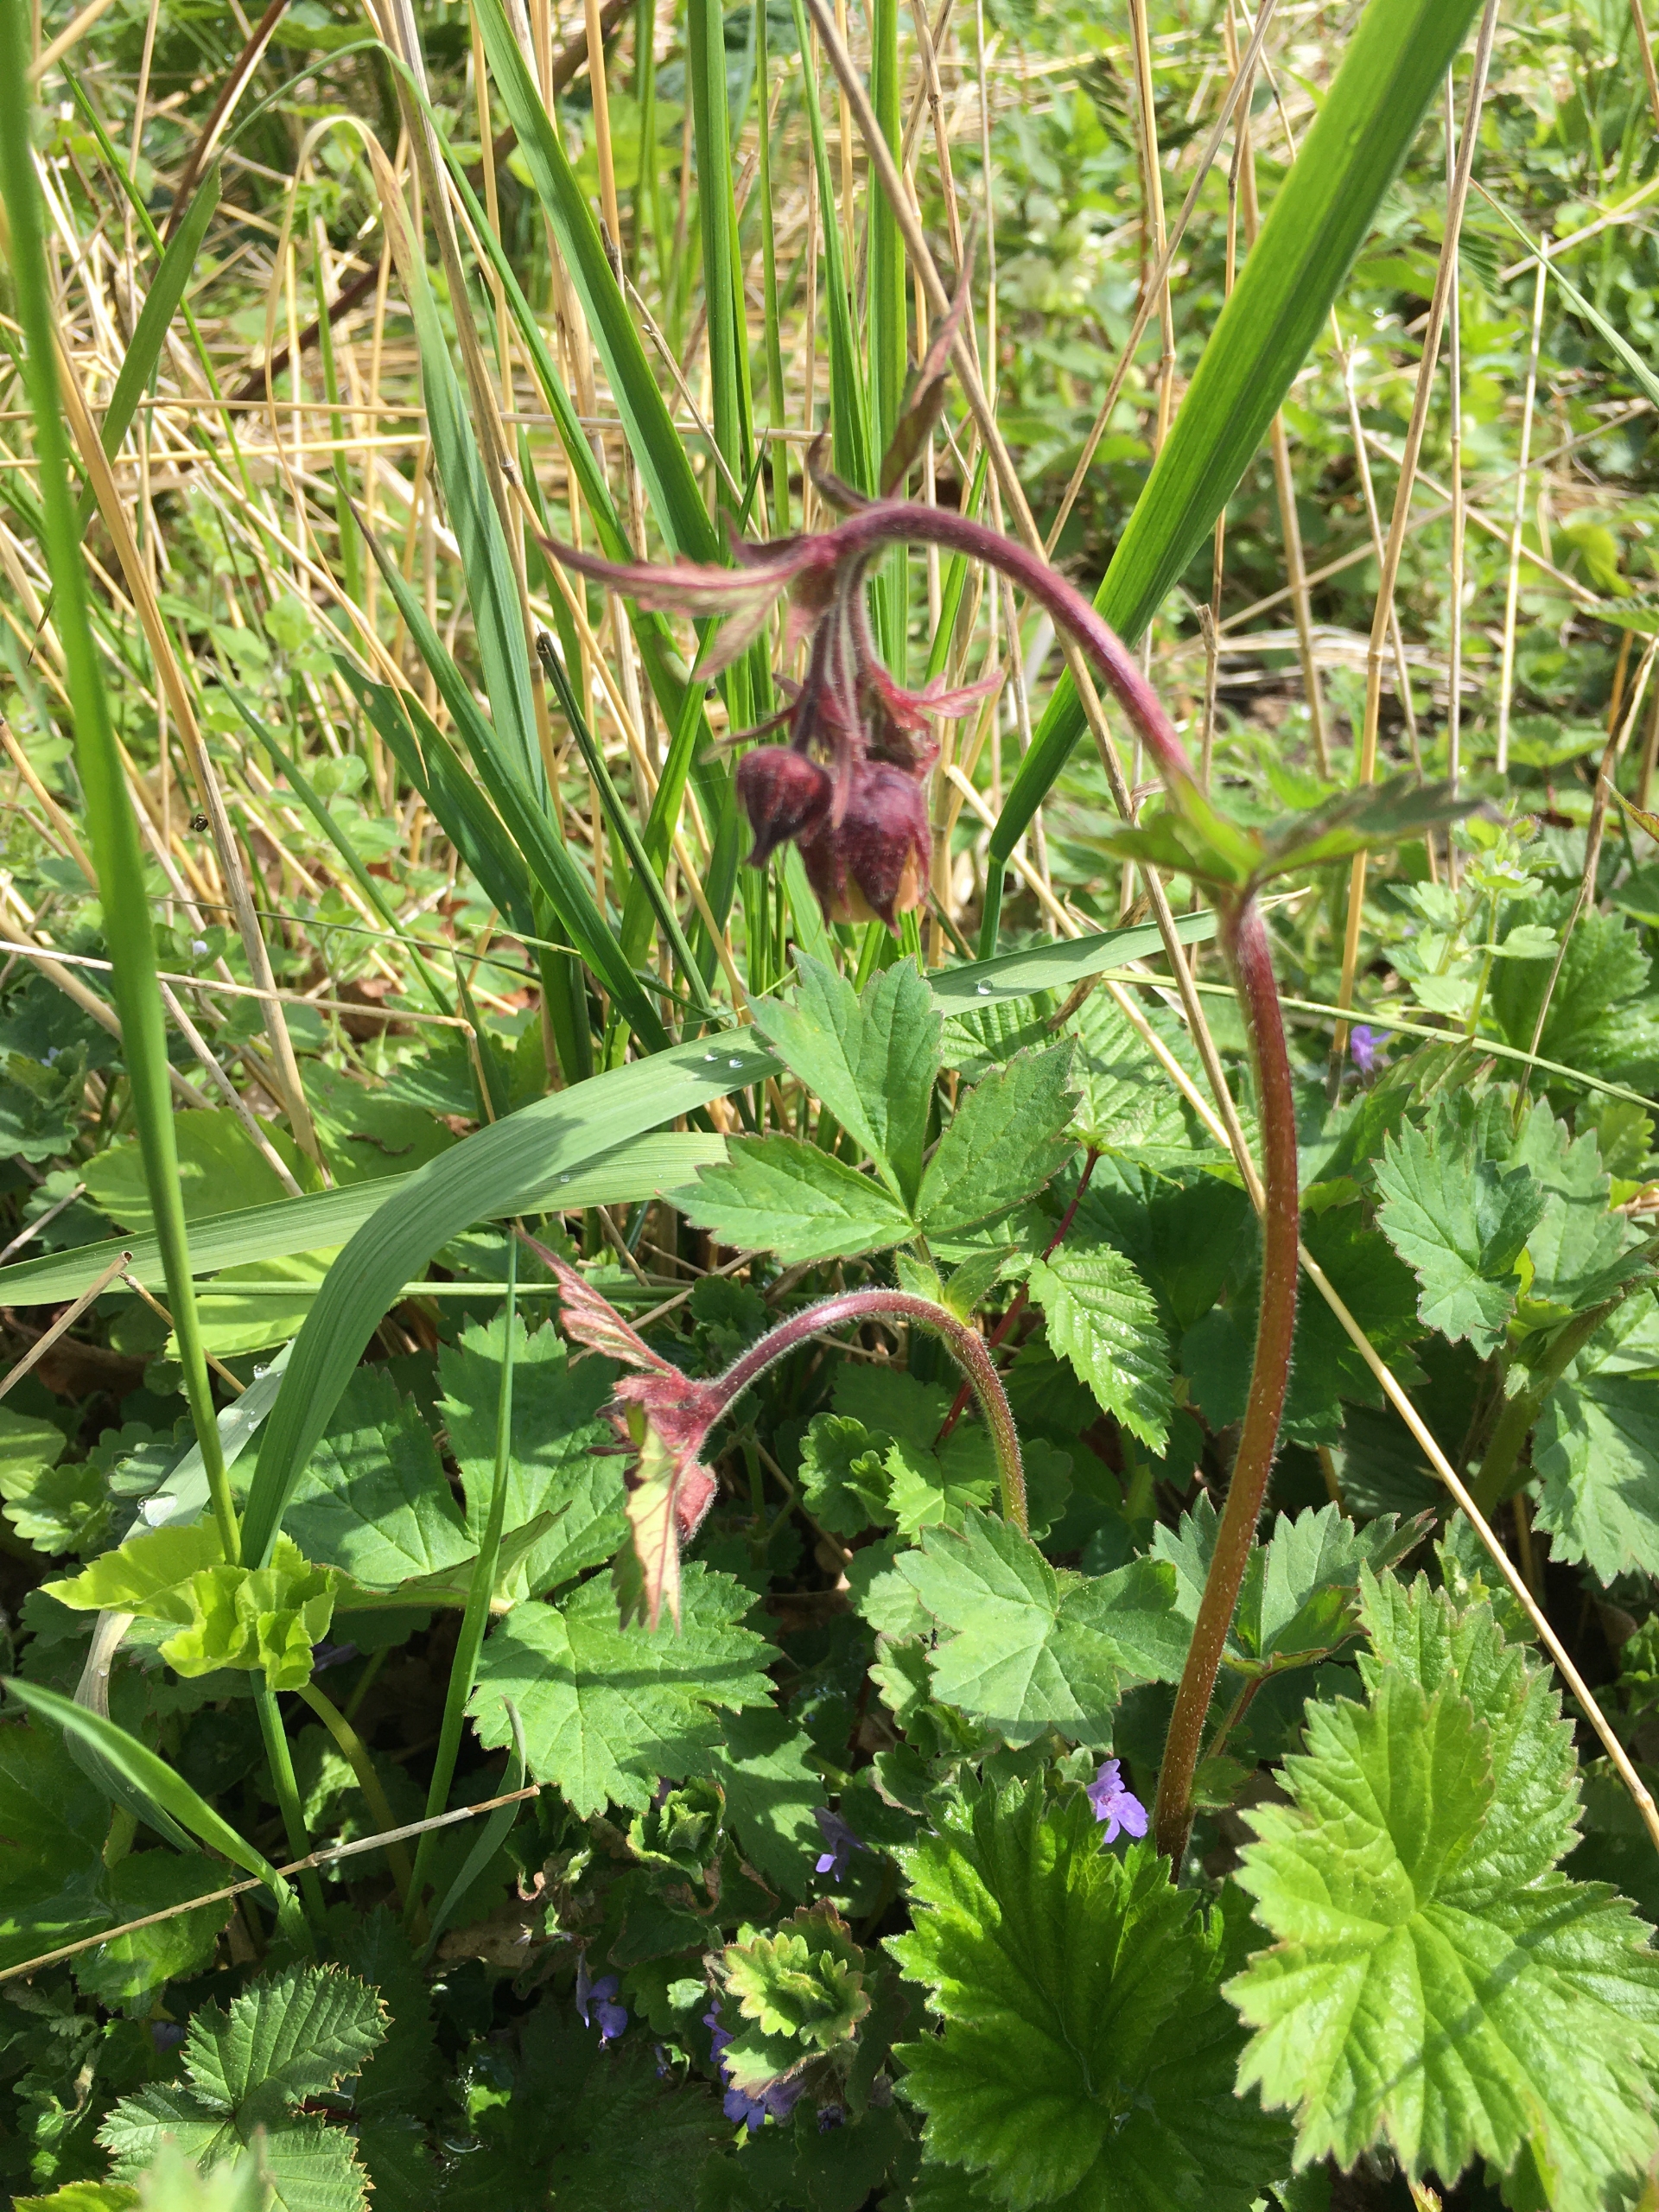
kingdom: Plantae
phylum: Tracheophyta
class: Magnoliopsida
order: Rosales
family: Rosaceae
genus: Geum
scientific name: Geum rivale
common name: Eng-nellikerod
